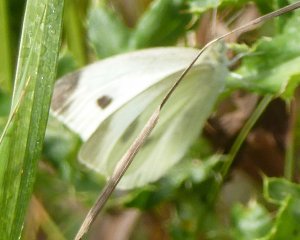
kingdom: Animalia
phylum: Arthropoda
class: Insecta
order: Lepidoptera
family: Pieridae
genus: Pieris
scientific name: Pieris rapae
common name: Cabbage White
